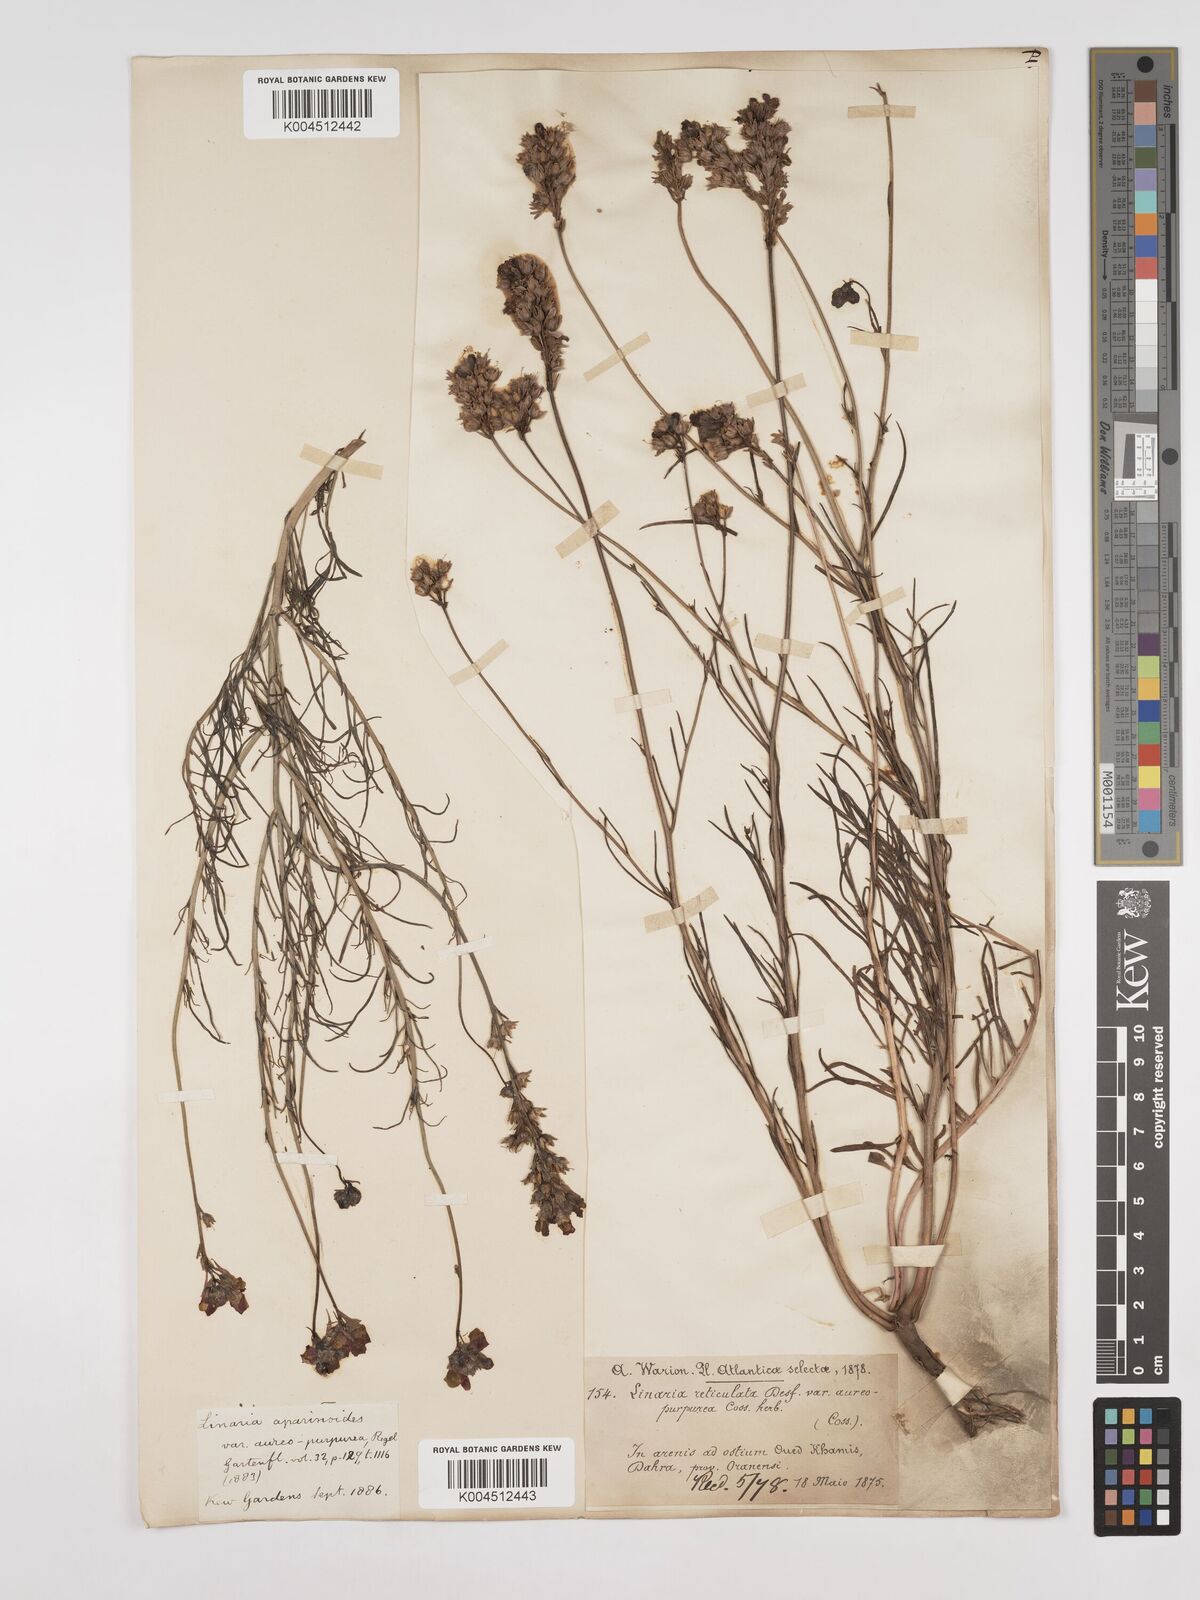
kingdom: Plantae
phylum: Tracheophyta
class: Magnoliopsida
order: Lamiales
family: Plantaginaceae
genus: Linaria
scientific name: Linaria multicaulis
